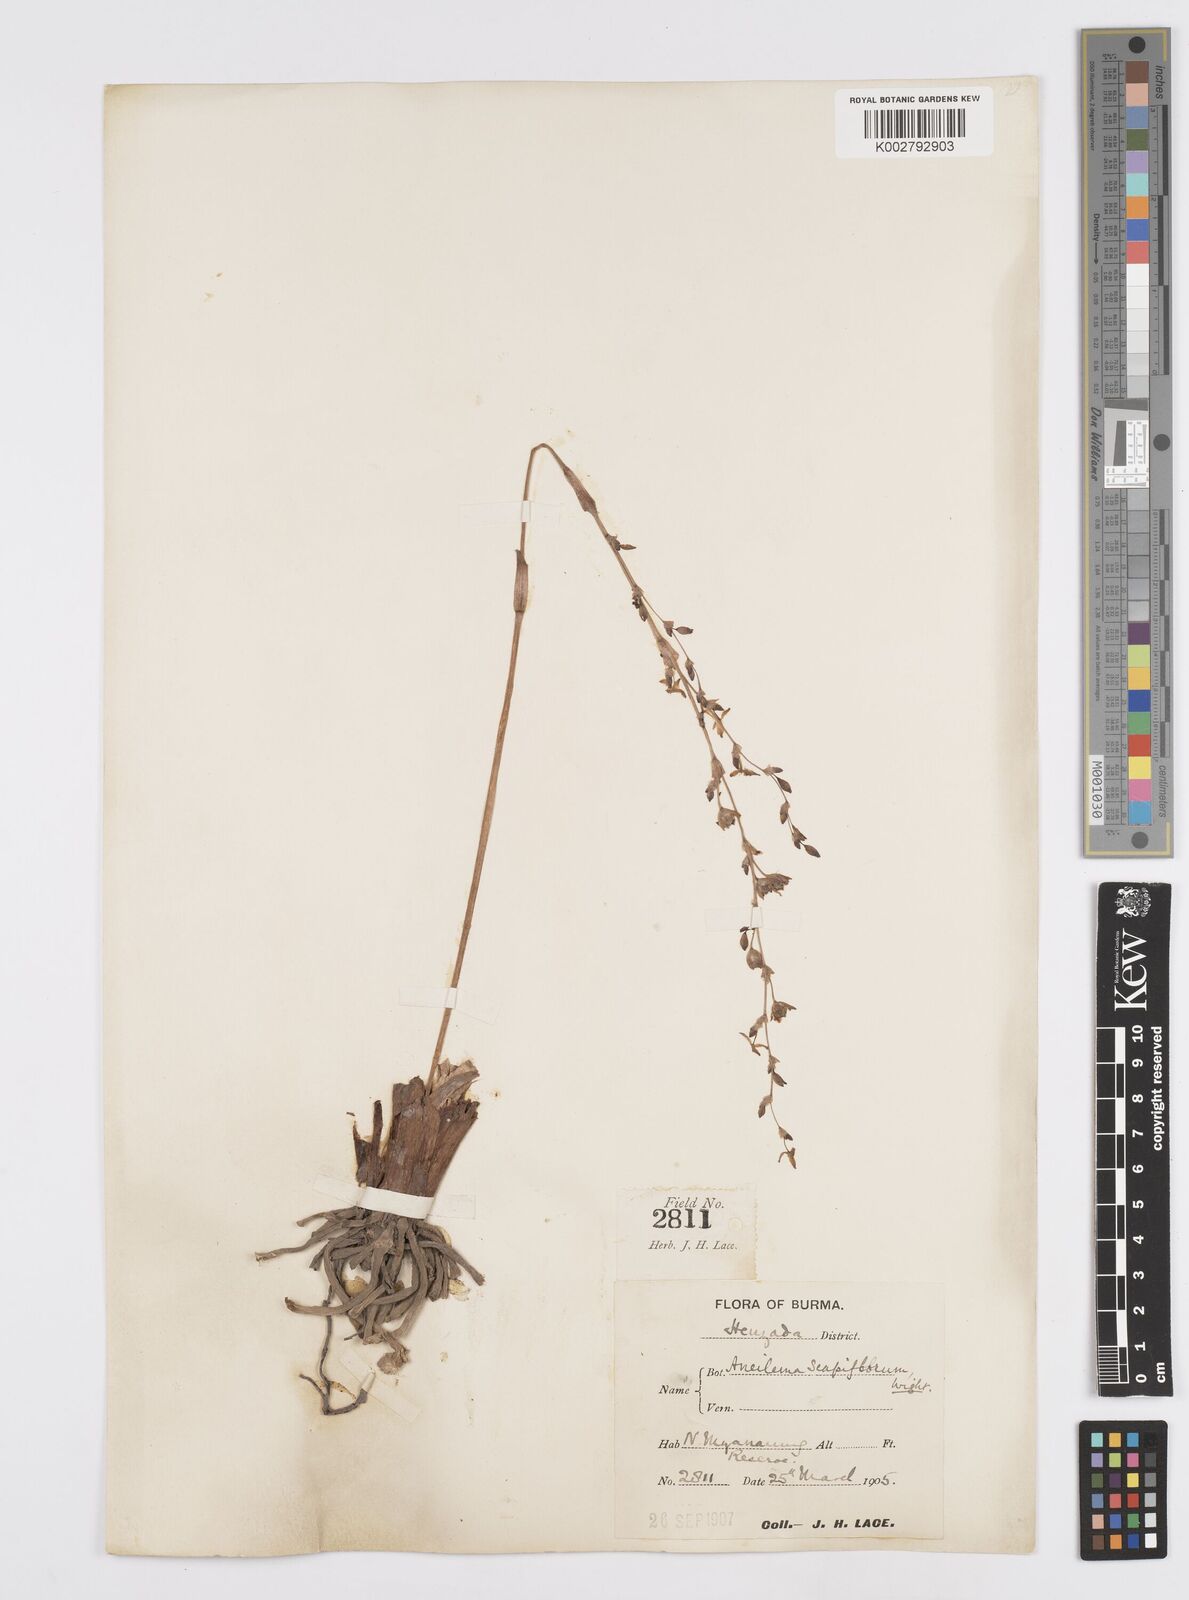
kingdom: Plantae
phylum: Tracheophyta
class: Liliopsida
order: Commelinales
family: Commelinaceae
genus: Murdannia
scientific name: Murdannia edulis
